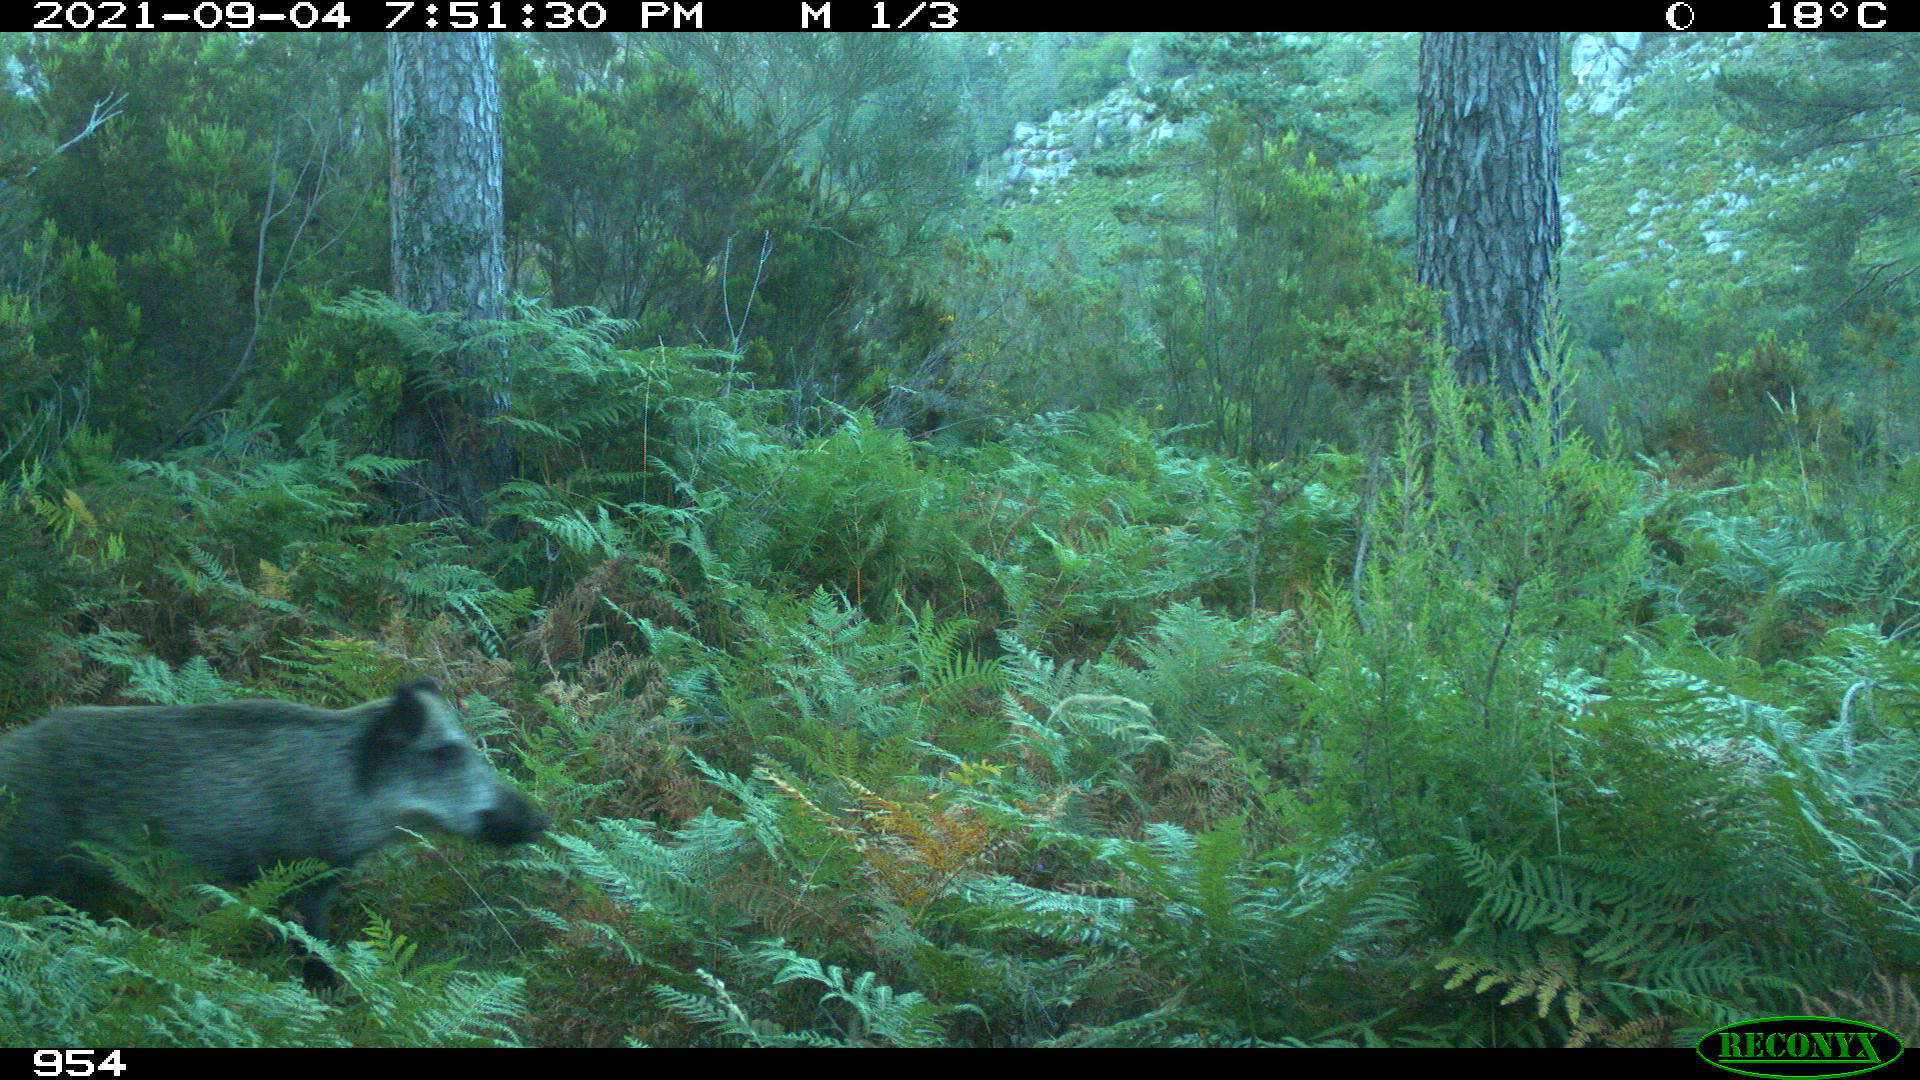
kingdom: Animalia
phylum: Chordata
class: Mammalia
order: Artiodactyla
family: Suidae
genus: Sus
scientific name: Sus scrofa
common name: Wild boar
